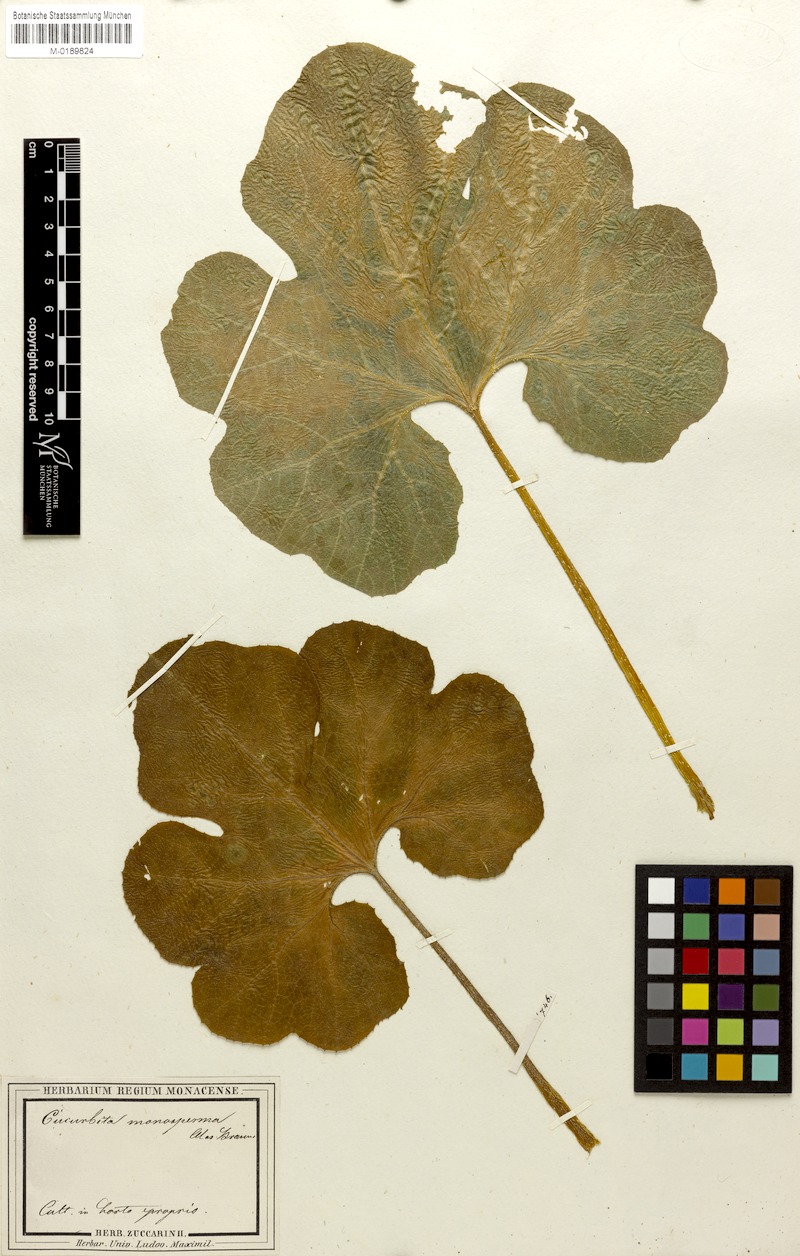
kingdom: Plantae
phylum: Tracheophyta
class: Magnoliopsida
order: Cucurbitales
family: Cucurbitaceae
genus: Cucurbita
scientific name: Cucurbita ficifolia
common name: Figleaf gourd
